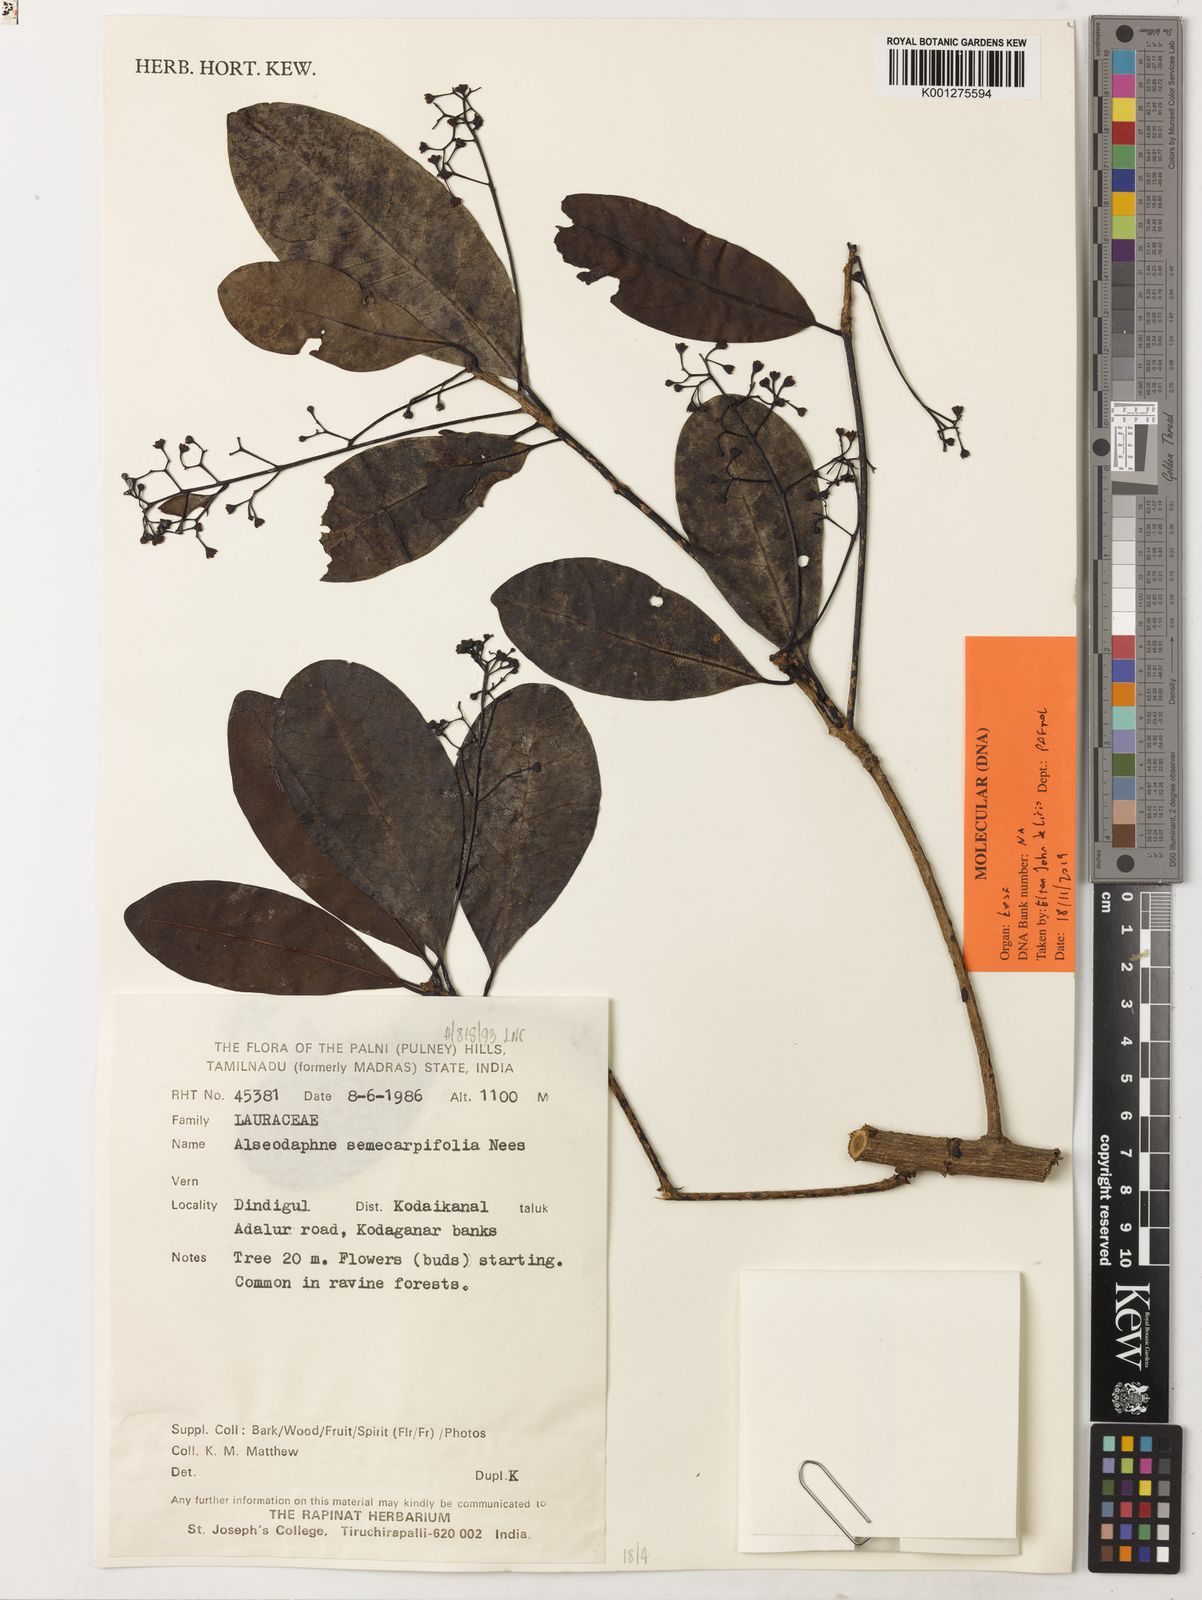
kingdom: Plantae
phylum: Tracheophyta
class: Magnoliopsida
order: Laurales
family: Lauraceae
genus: Alseodaphne
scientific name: Alseodaphne semecarpifolia
